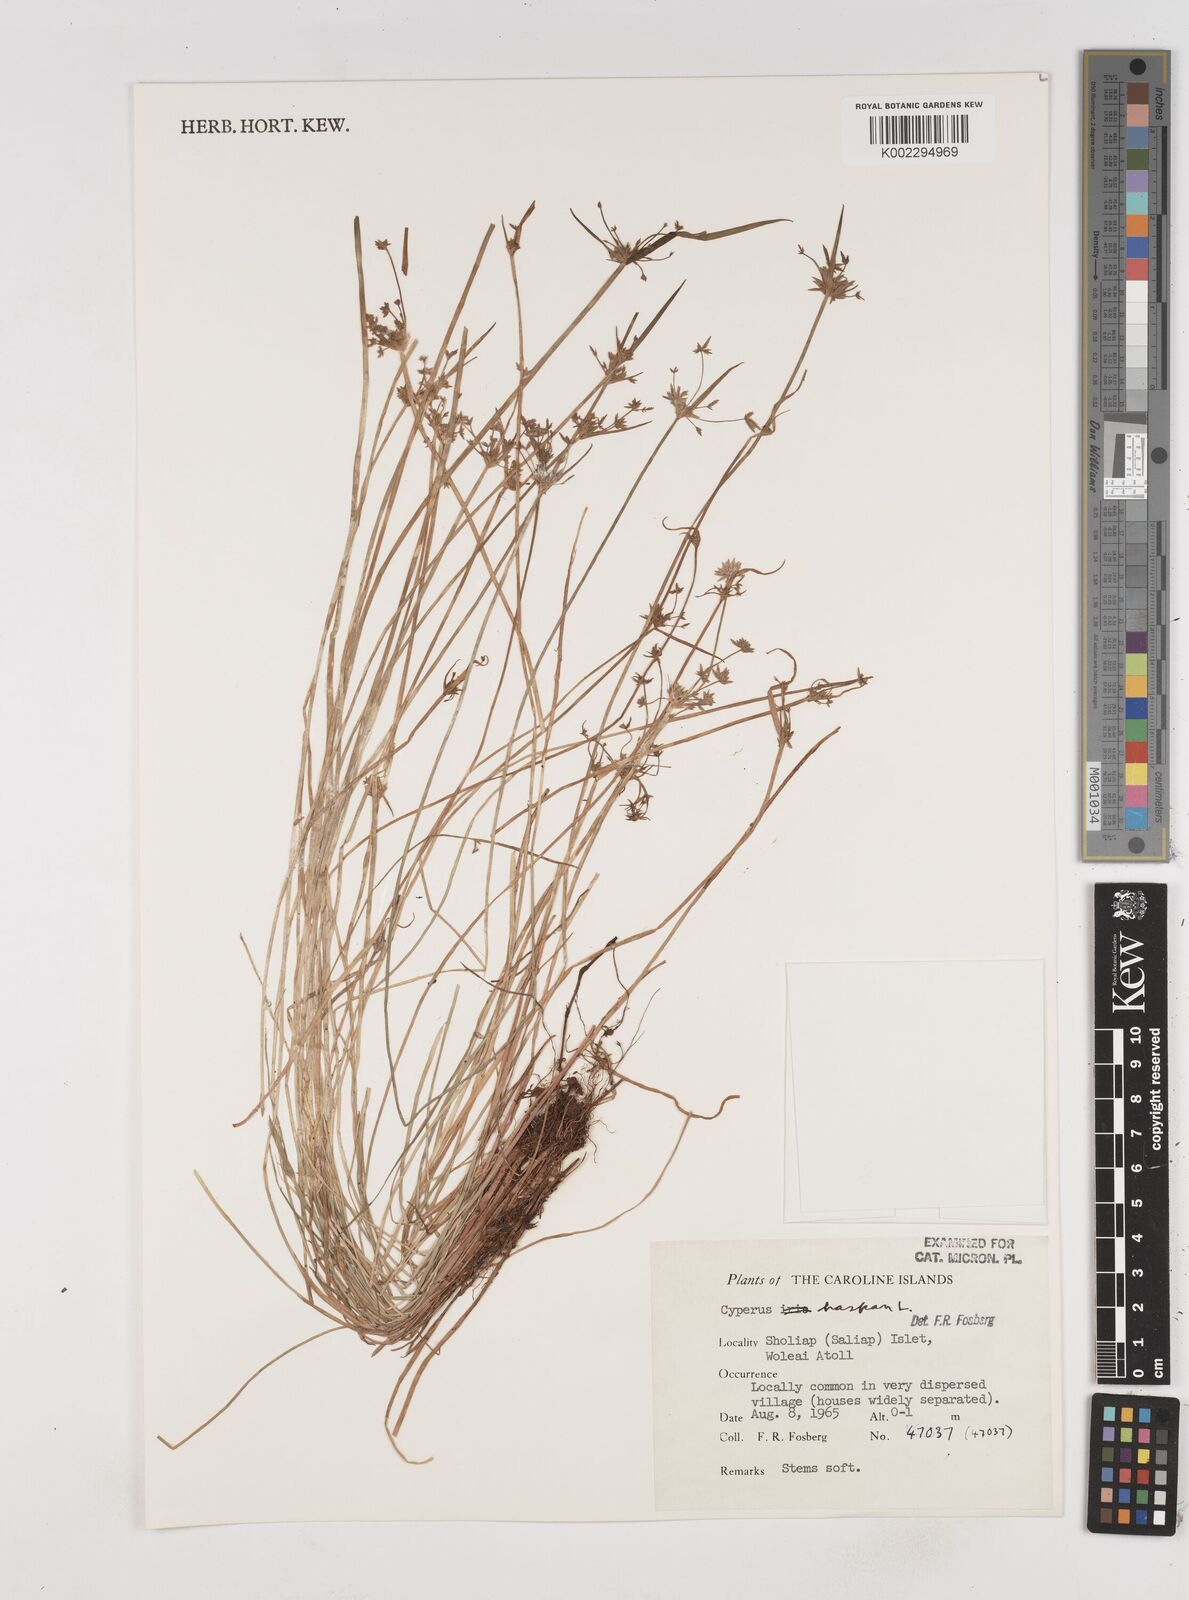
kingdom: Plantae
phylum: Tracheophyta
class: Liliopsida
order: Poales
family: Cyperaceae
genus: Cyperus
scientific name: Cyperus haspan
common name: Haspan flatsedge
